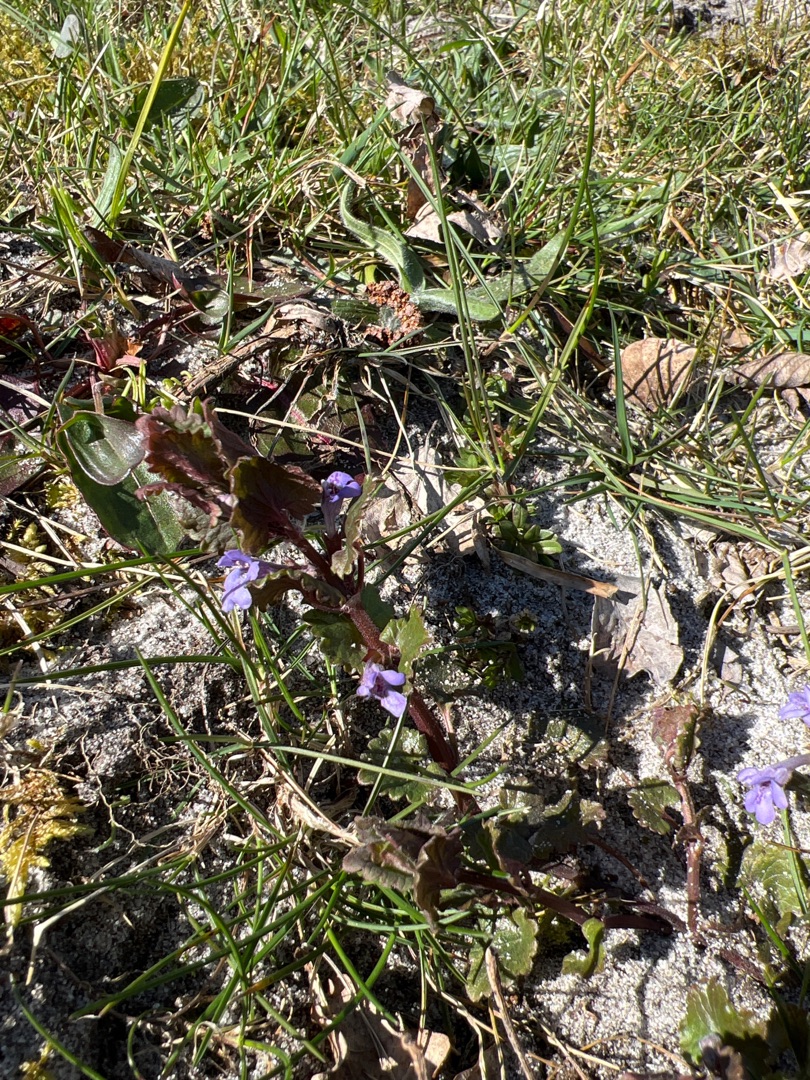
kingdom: Plantae
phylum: Tracheophyta
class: Magnoliopsida
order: Lamiales
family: Lamiaceae
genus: Glechoma
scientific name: Glechoma hederacea
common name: Korsknap
